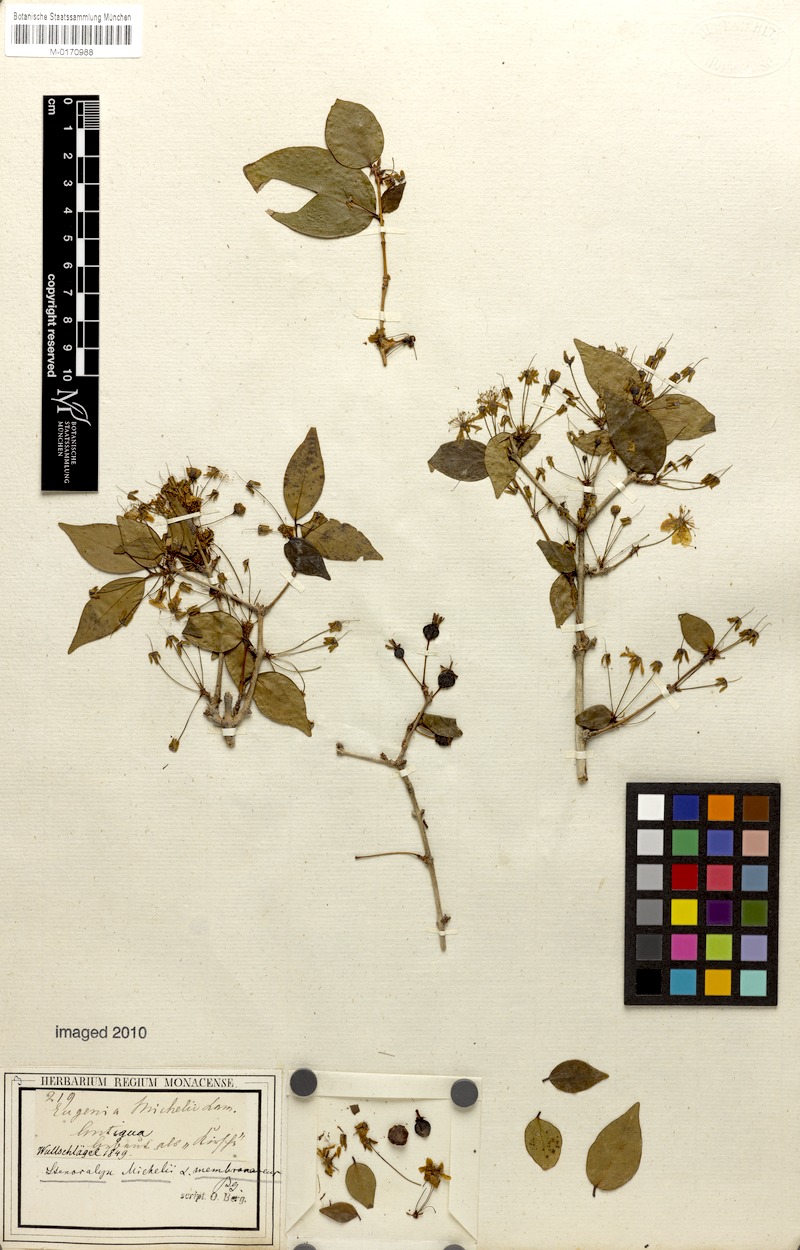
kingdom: Plantae
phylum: Tracheophyta
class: Magnoliopsida
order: Myrtales
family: Myrtaceae
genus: Eugenia
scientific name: Eugenia uniflora
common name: Surinam cherry
